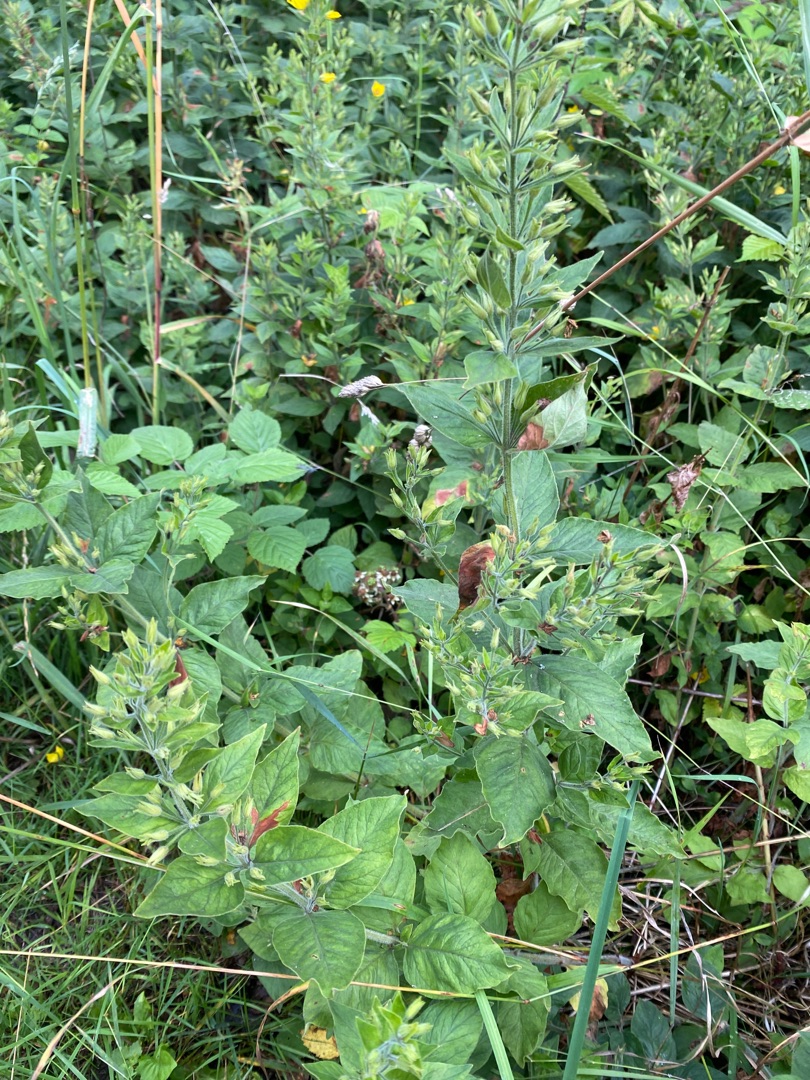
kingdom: Plantae
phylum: Tracheophyta
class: Magnoliopsida
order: Ericales
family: Primulaceae
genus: Lysimachia
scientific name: Lysimachia punctata
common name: Prikbladet fredløs
